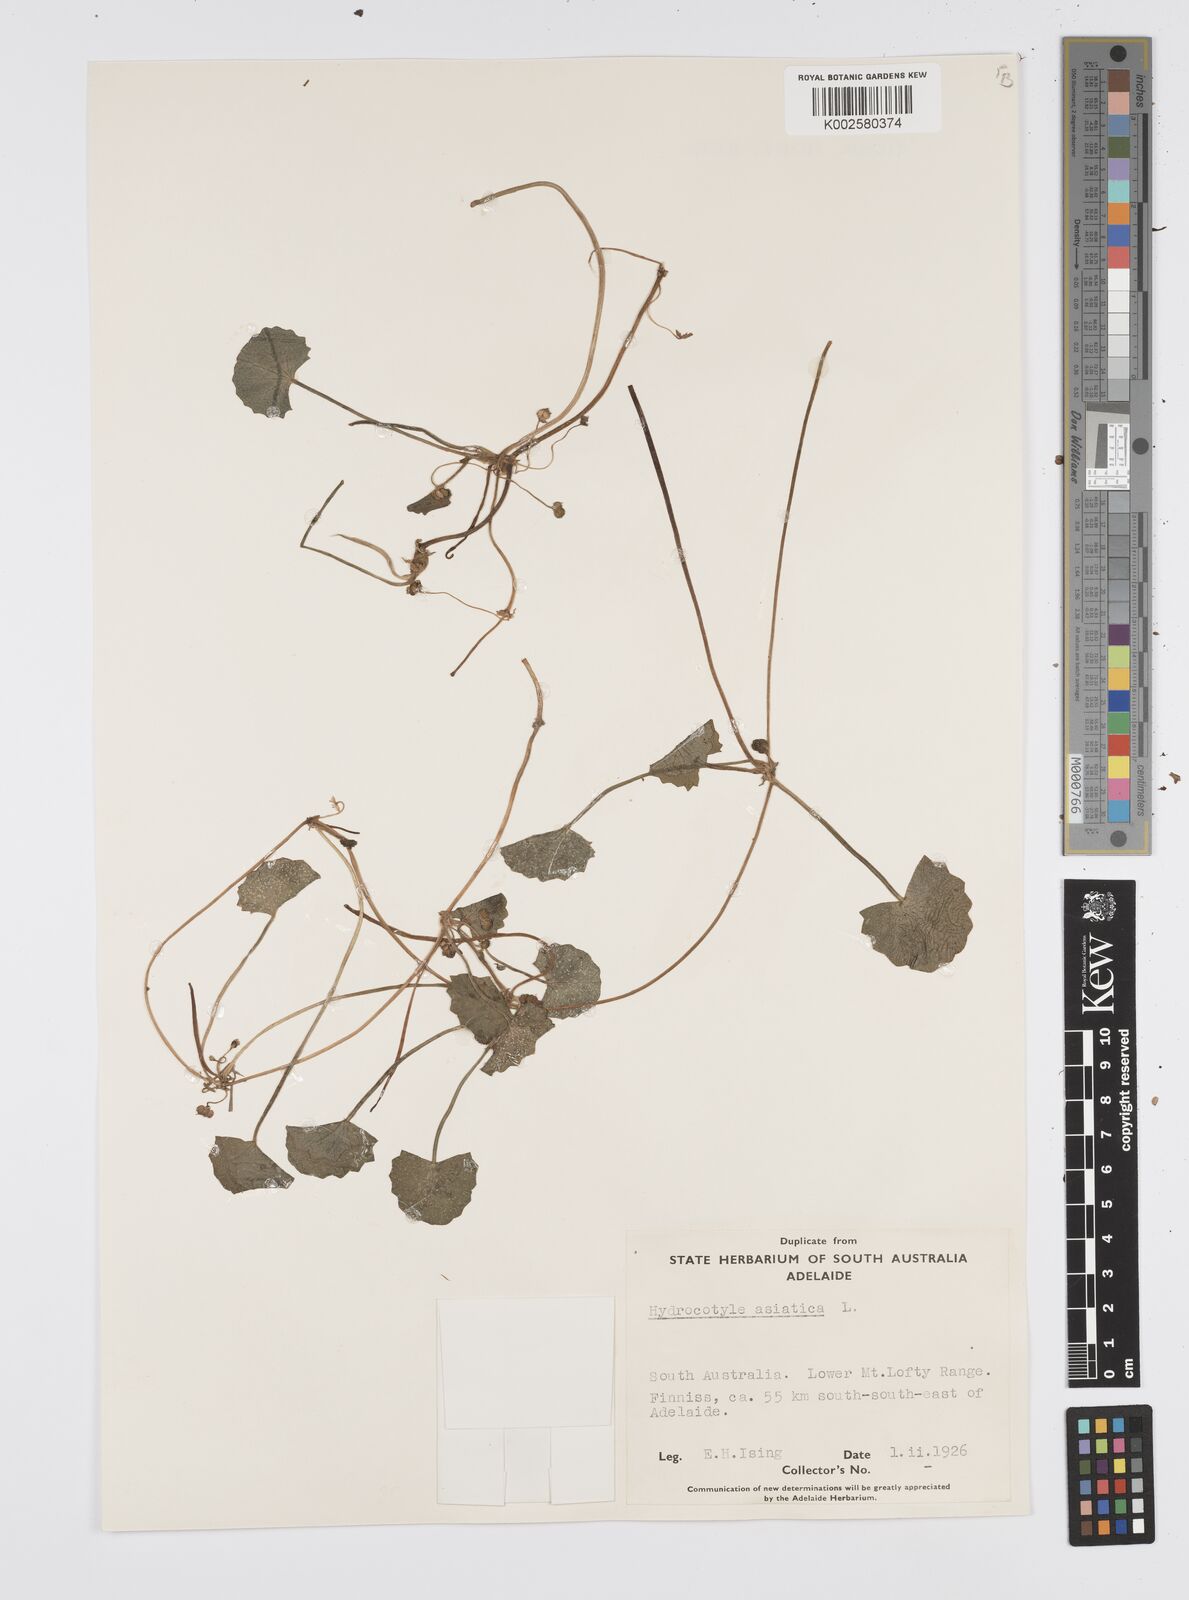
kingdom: Plantae
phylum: Tracheophyta
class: Magnoliopsida
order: Apiales
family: Apiaceae
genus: Centella
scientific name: Centella asiatica
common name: Spadeleaf
